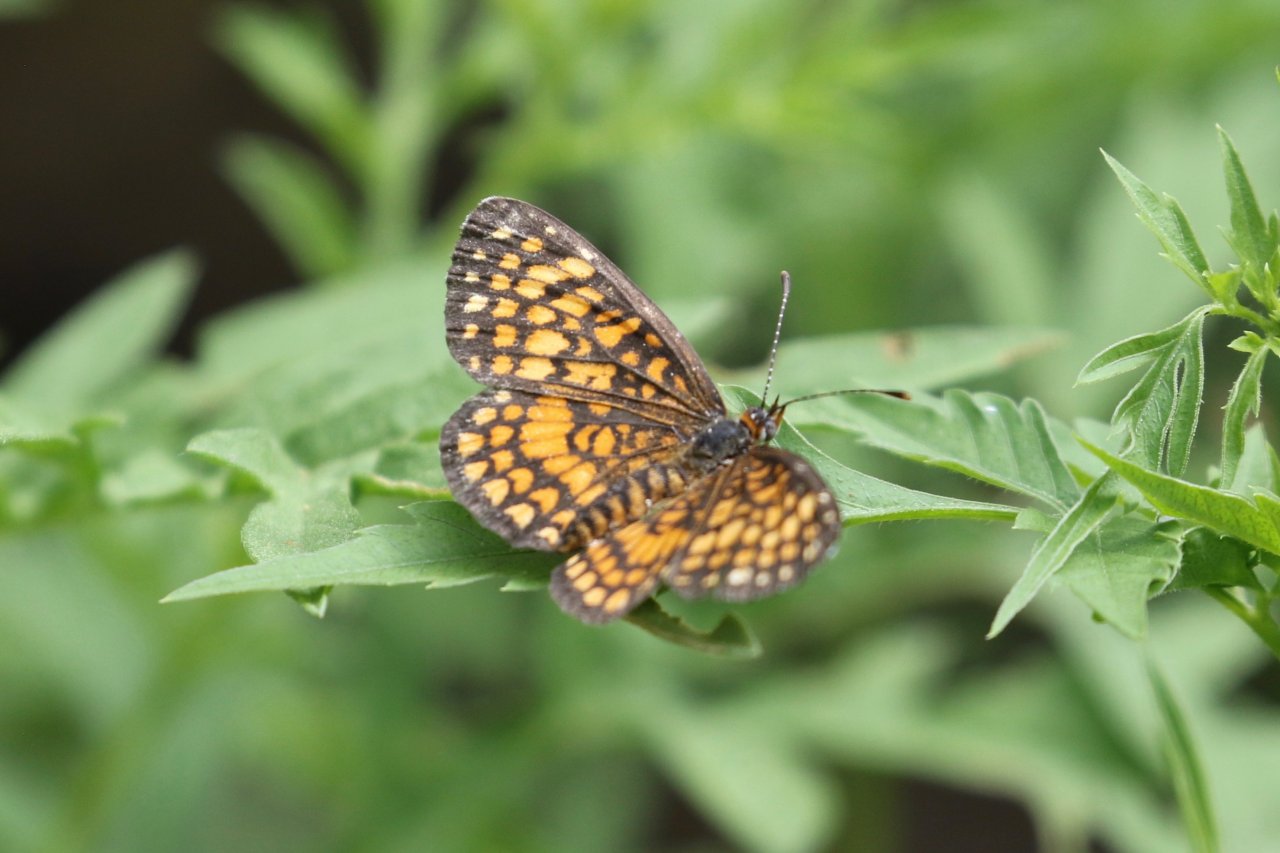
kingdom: Animalia
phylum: Arthropoda
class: Insecta
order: Lepidoptera
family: Nymphalidae
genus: Texola
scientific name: Texola elada
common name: Elada Checkerspot
